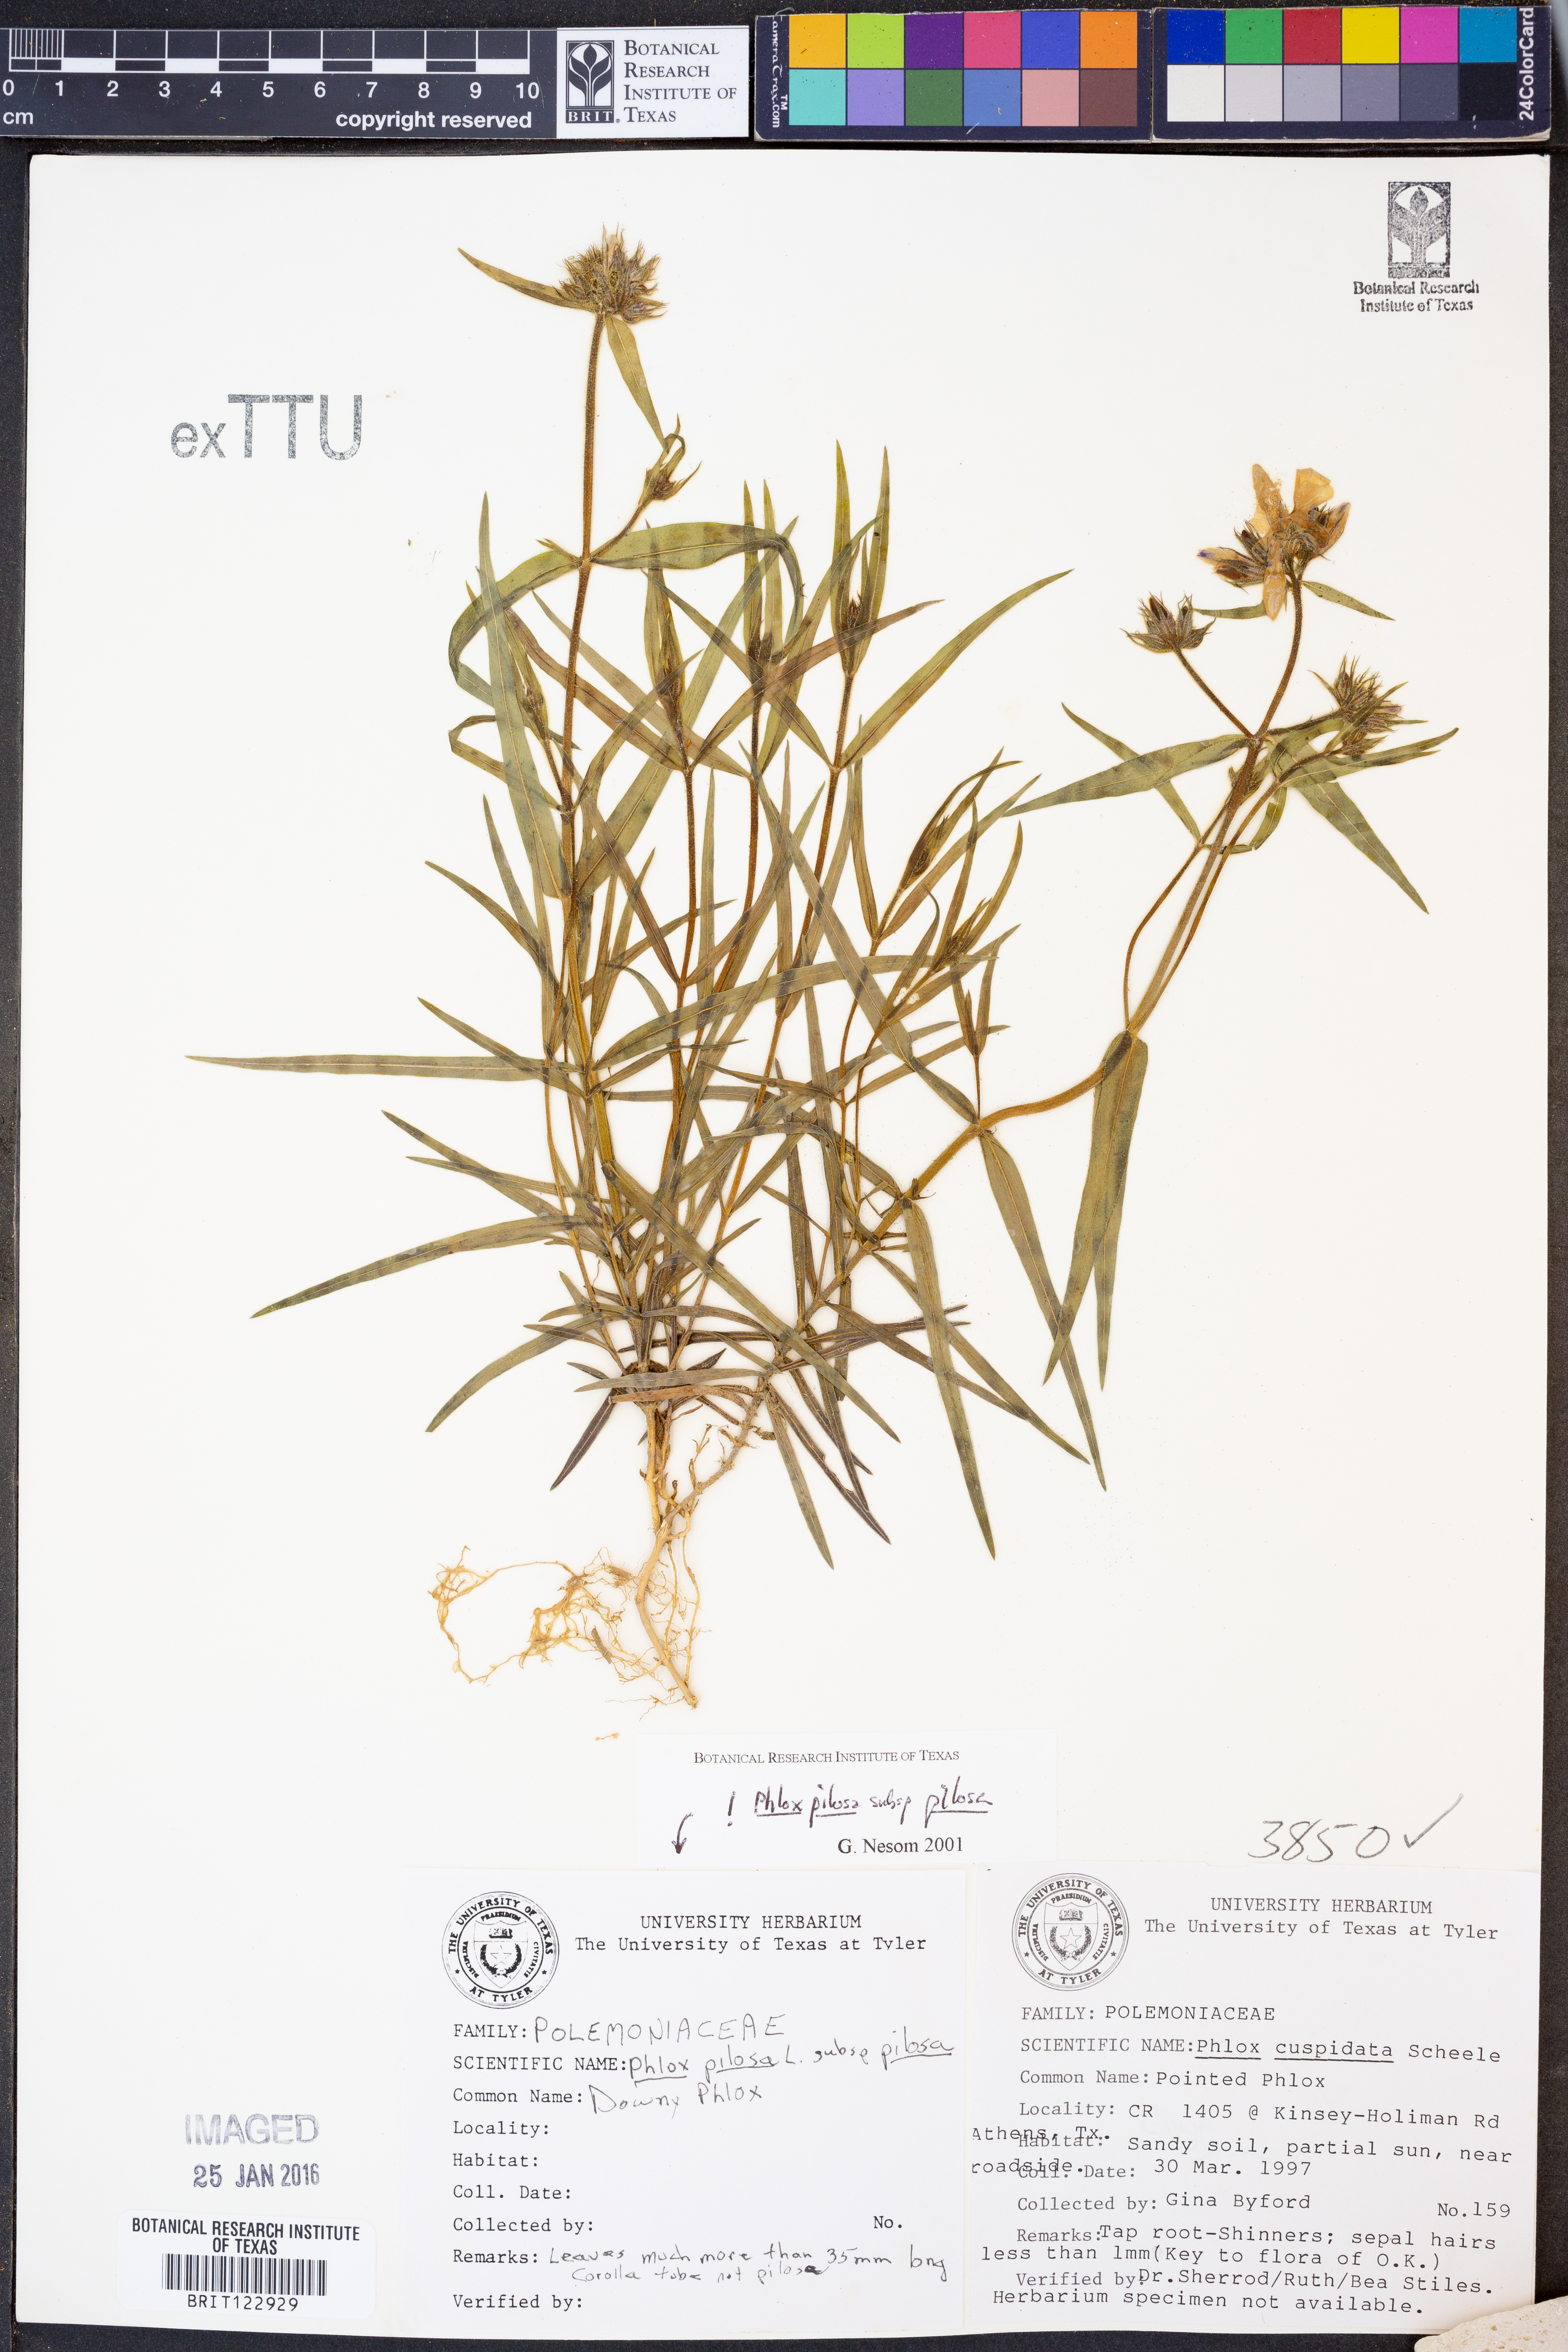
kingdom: Plantae
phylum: Tracheophyta
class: Magnoliopsida
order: Ericales
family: Polemoniaceae
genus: Phlox
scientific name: Phlox pilosa
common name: Prairie phlox
